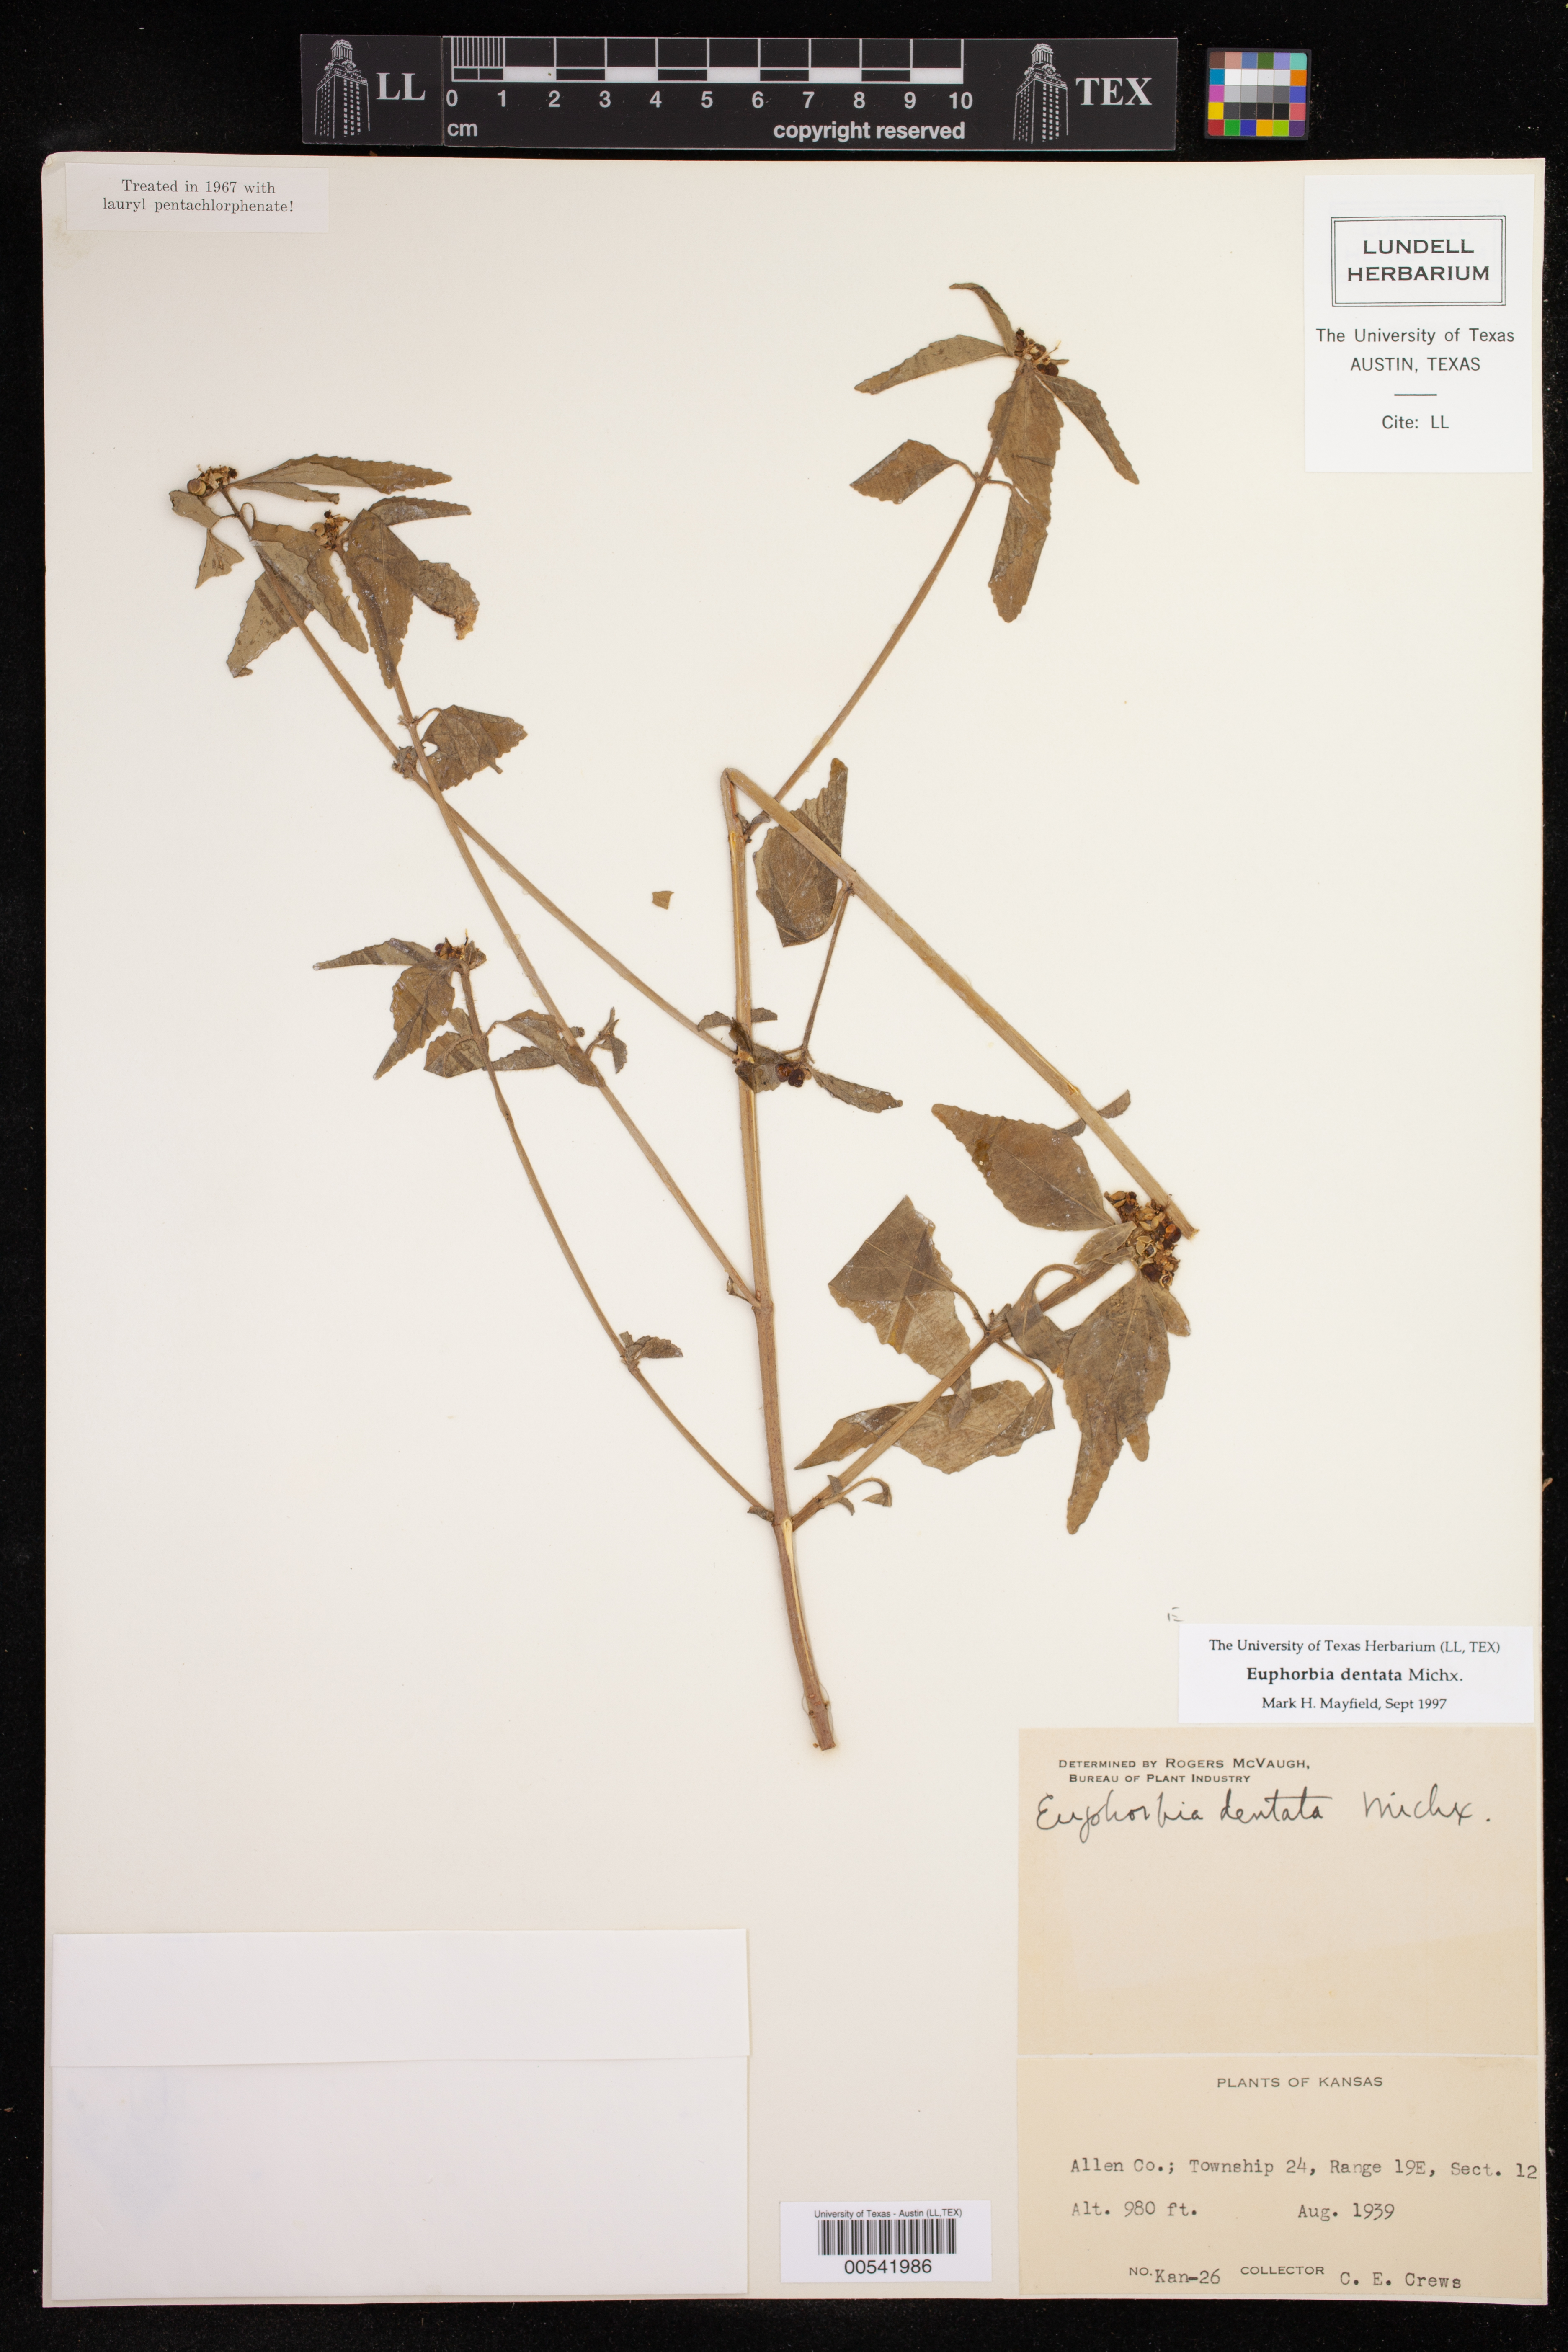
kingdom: Plantae
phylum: Tracheophyta
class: Magnoliopsida
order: Malpighiales
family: Euphorbiaceae
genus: Euphorbia
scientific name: Euphorbia dentata
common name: Dentate spurge
